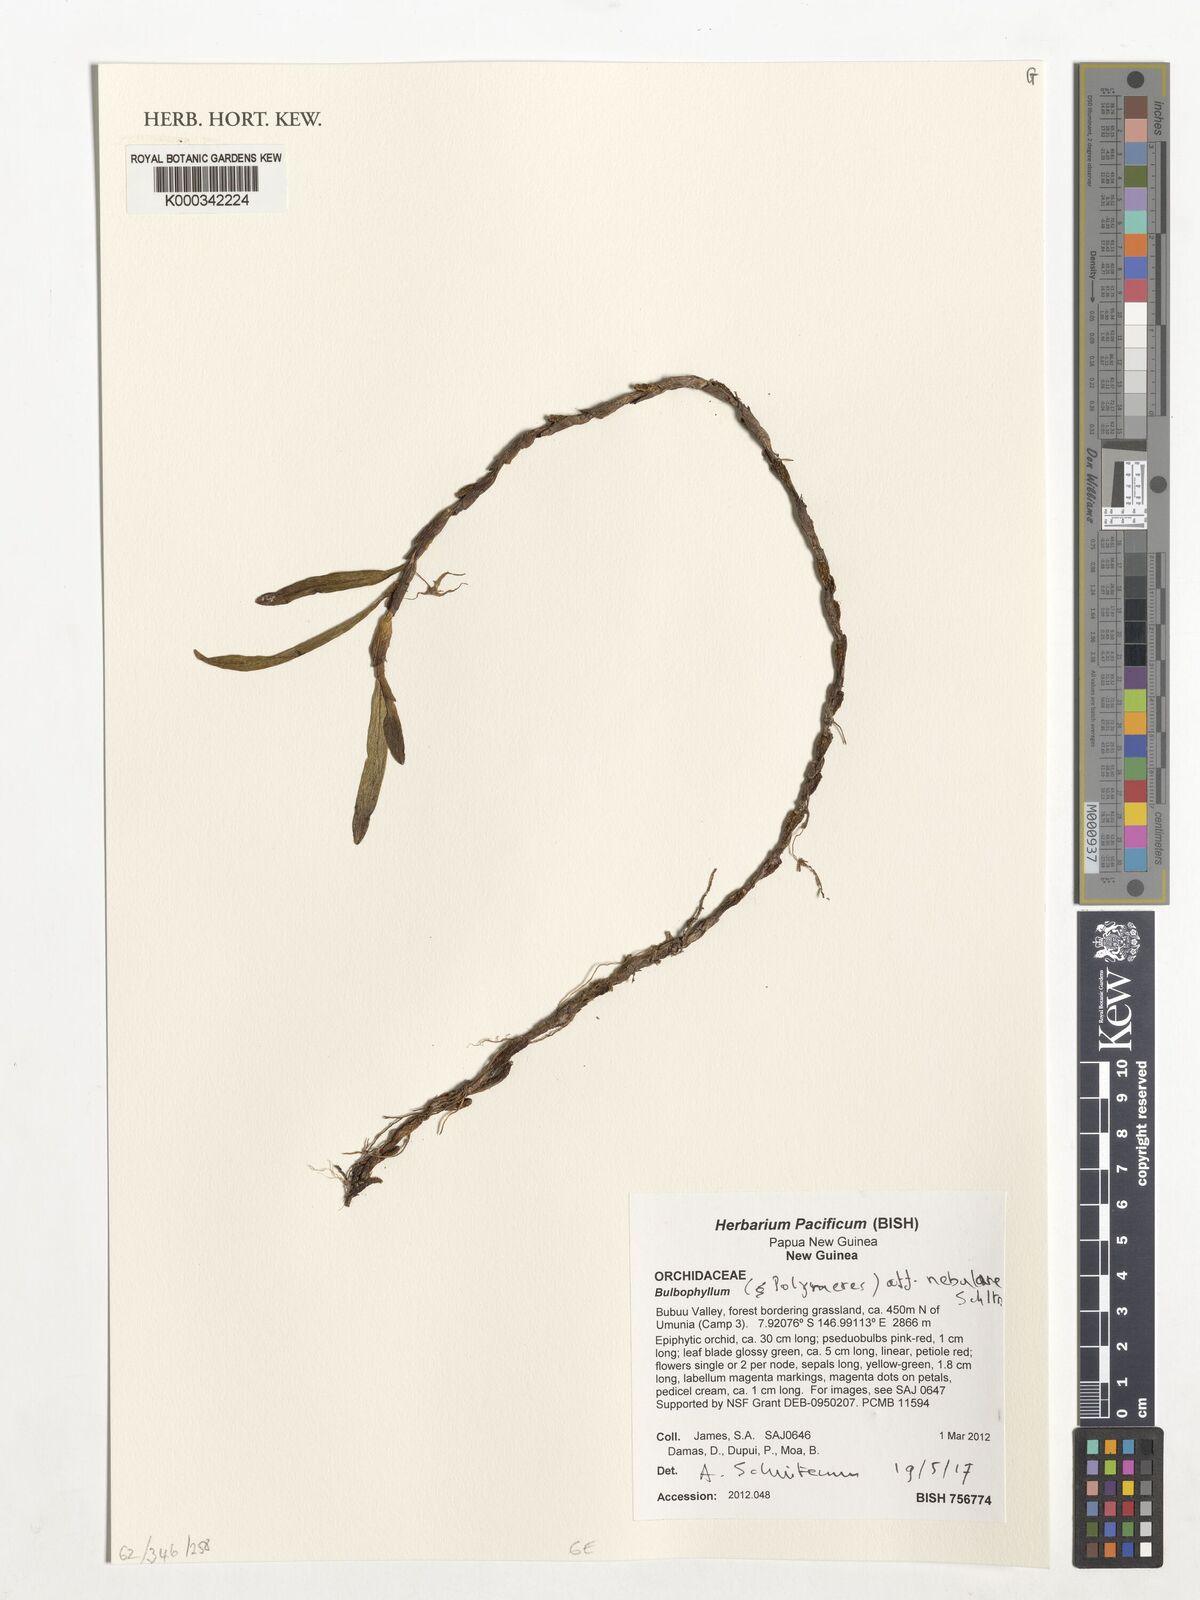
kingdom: Plantae
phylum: Tracheophyta
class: Liliopsida
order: Asparagales
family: Orchidaceae
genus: Bulbophyllum
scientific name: Bulbophyllum
